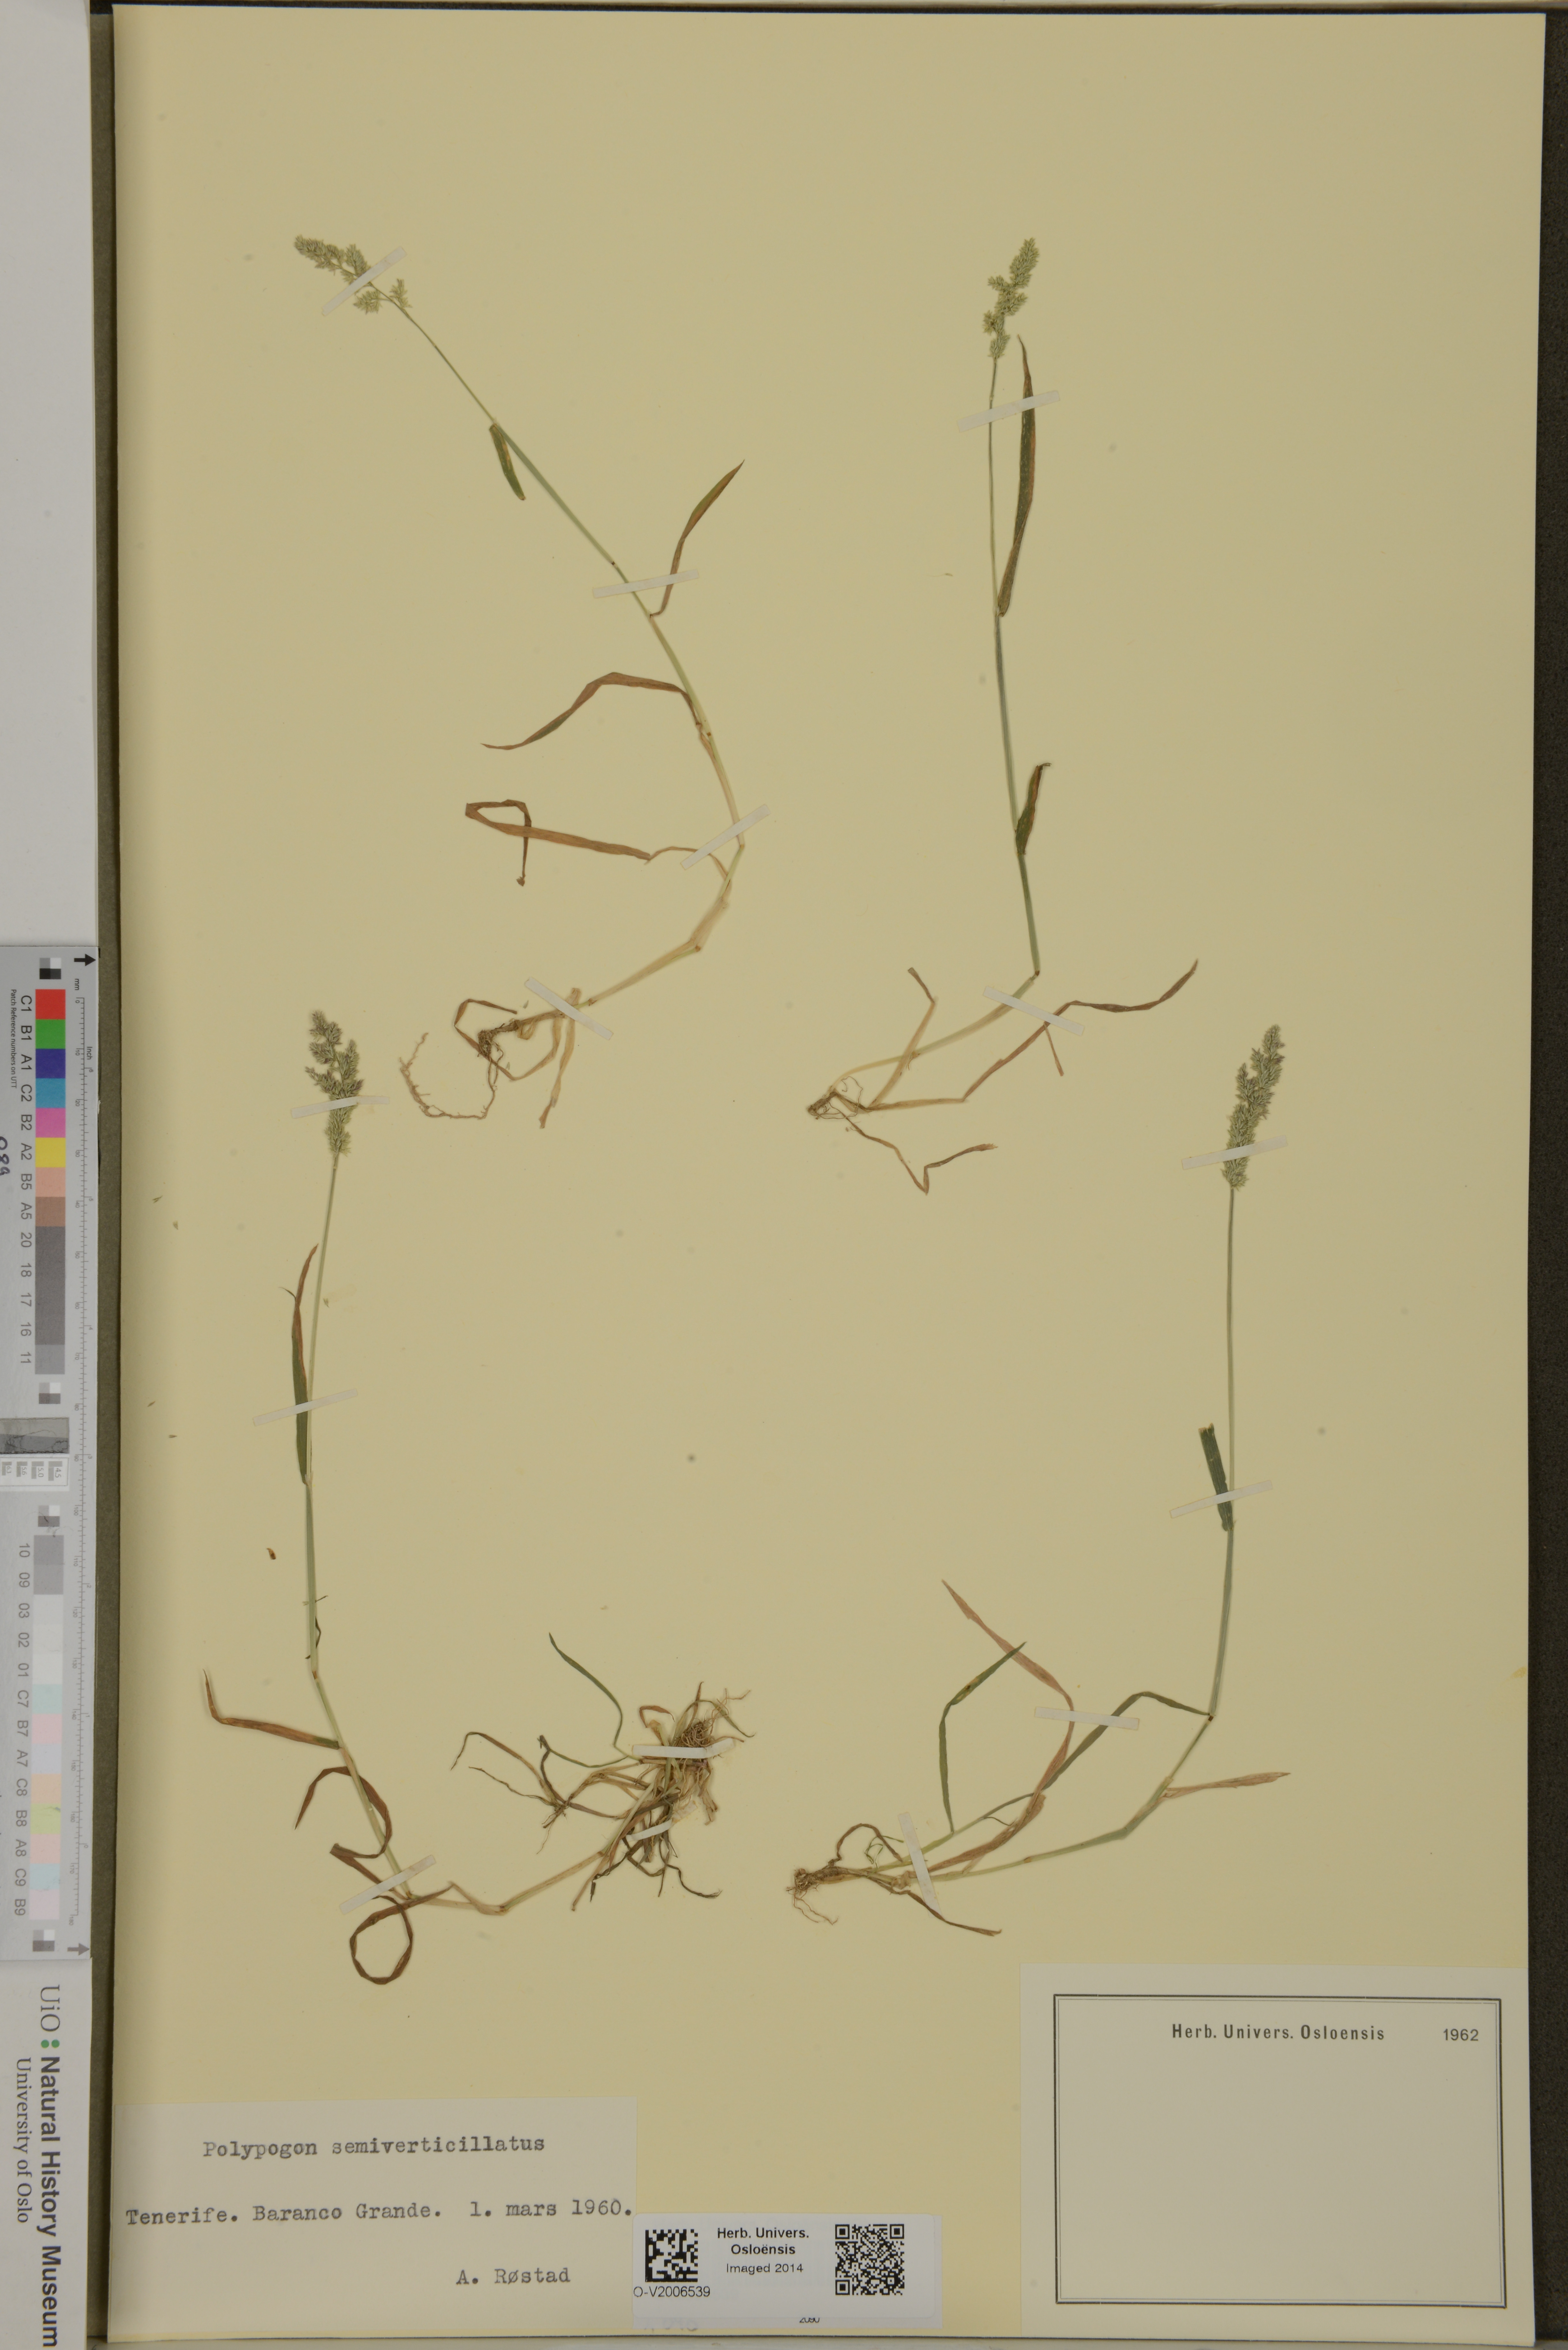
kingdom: Plantae
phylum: Tracheophyta
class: Liliopsida
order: Poales
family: Poaceae
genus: Polypogon
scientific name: Polypogon viridis
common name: Water bent
